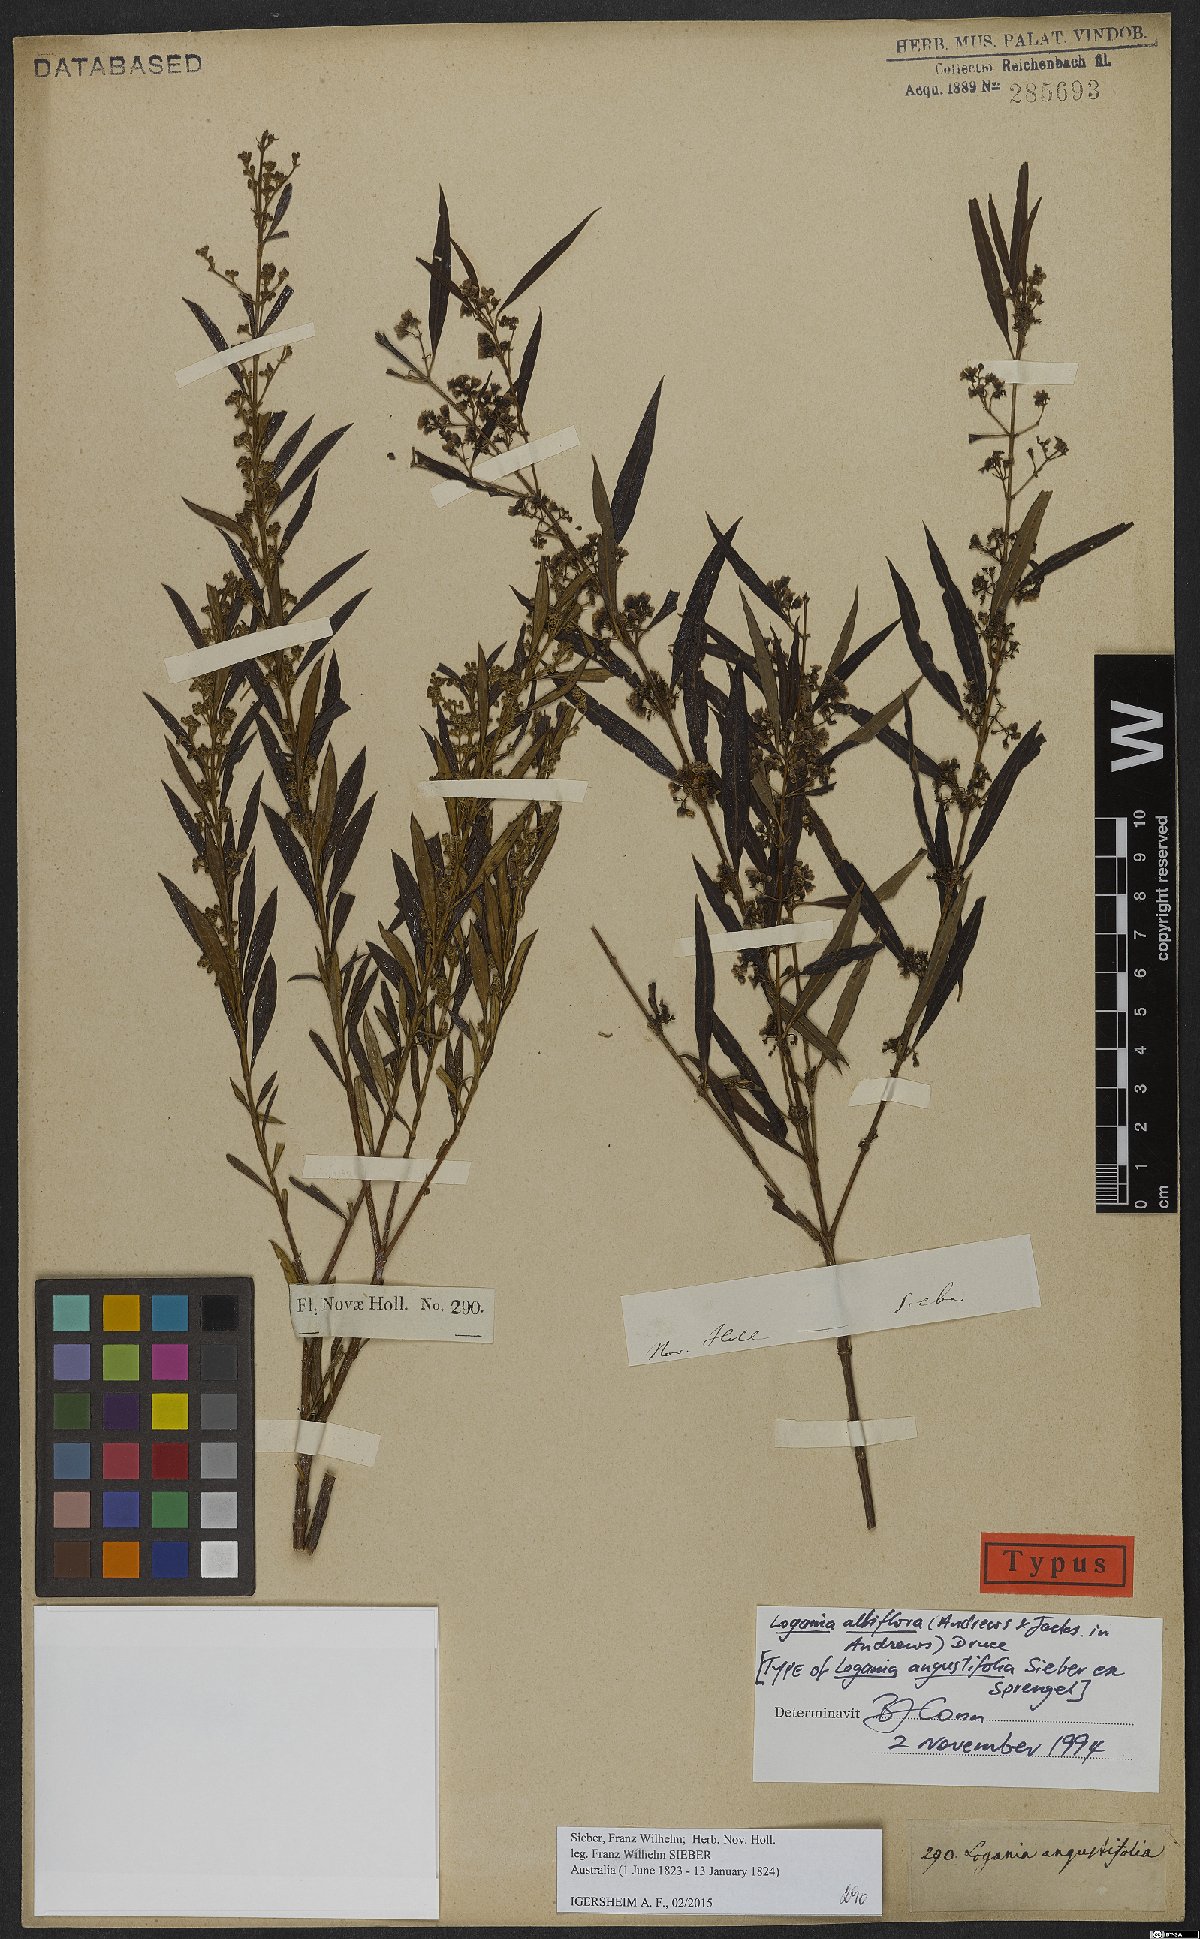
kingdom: Plantae
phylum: Tracheophyta
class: Magnoliopsida
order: Gentianales
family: Loganiaceae
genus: Logania
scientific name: Logania albiflora
